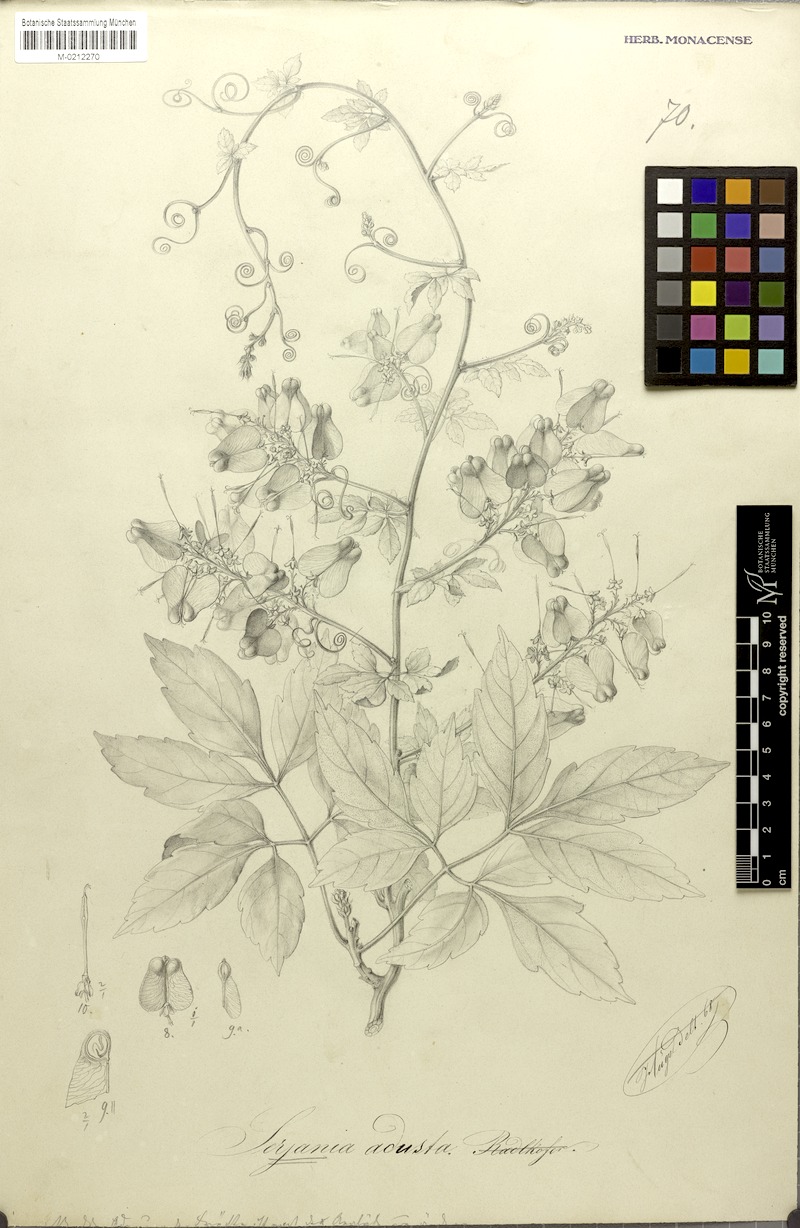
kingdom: Plantae
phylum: Tracheophyta
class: Magnoliopsida
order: Sapindales
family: Sapindaceae
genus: Serjania
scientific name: Serjania adusta
